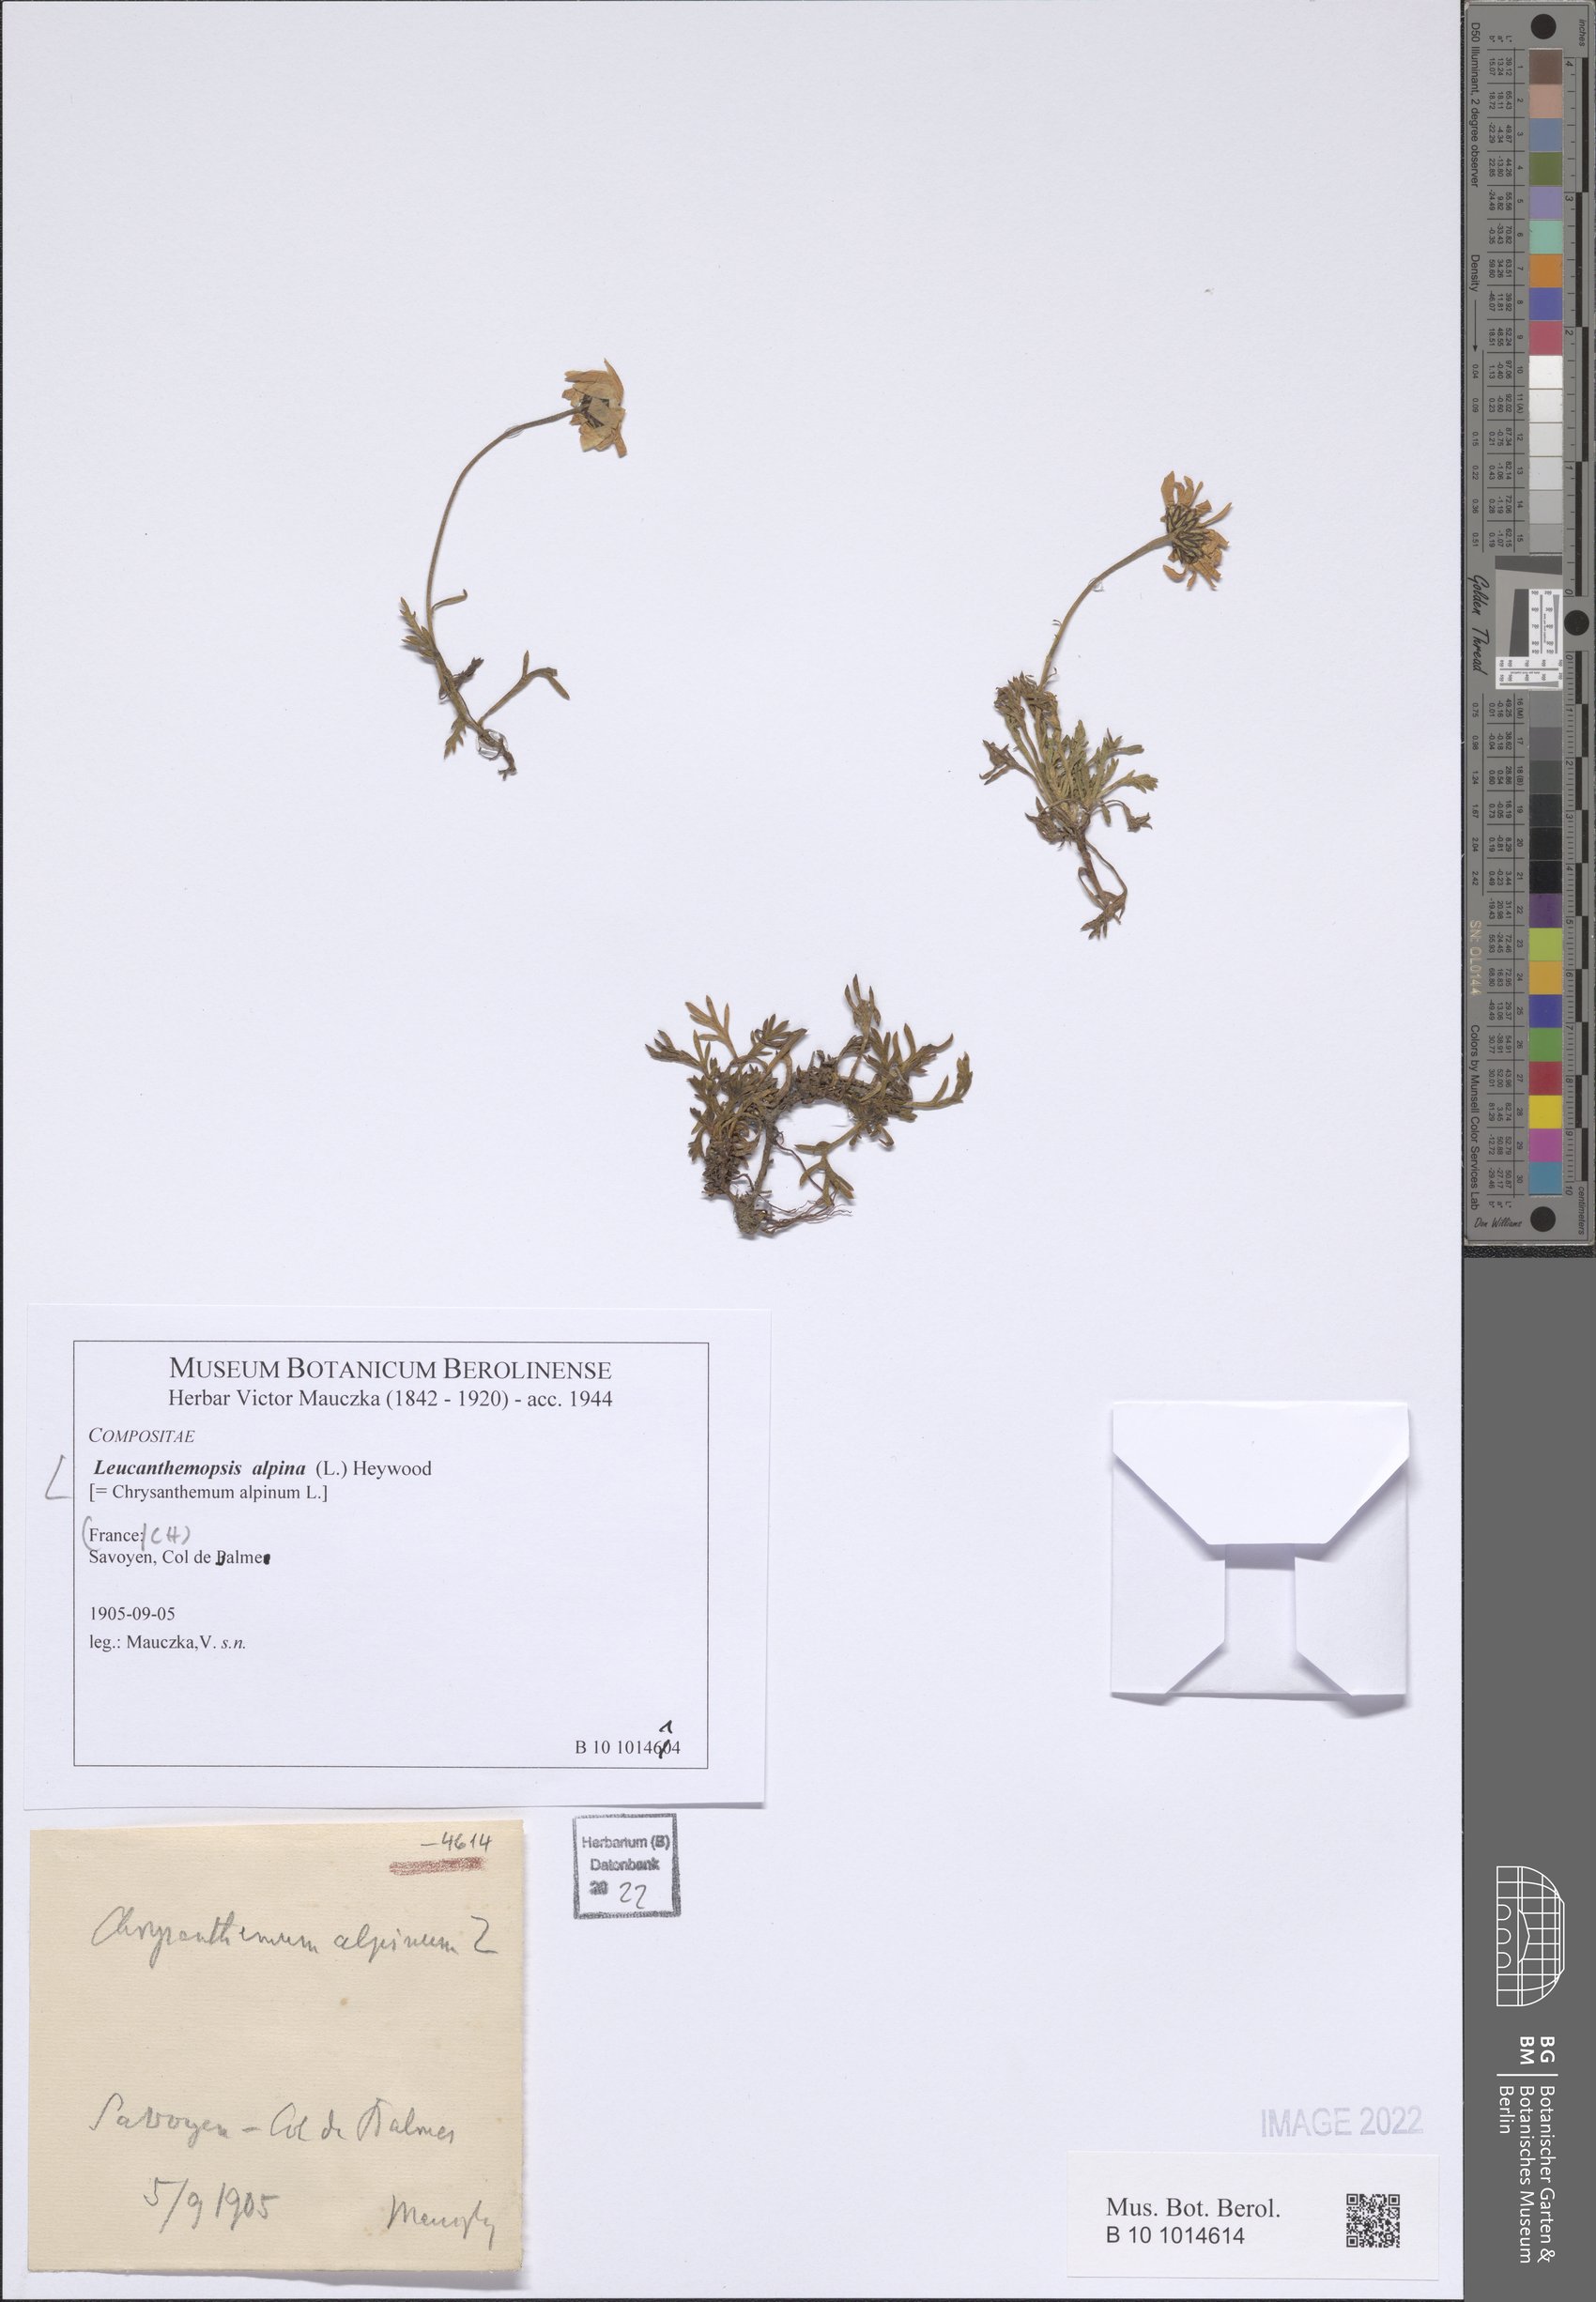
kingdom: Plantae
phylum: Tracheophyta
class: Magnoliopsida
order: Asterales
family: Asteraceae
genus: Leucanthemopsis
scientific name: Leucanthemopsis alpina
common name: Alpine moon daisy
